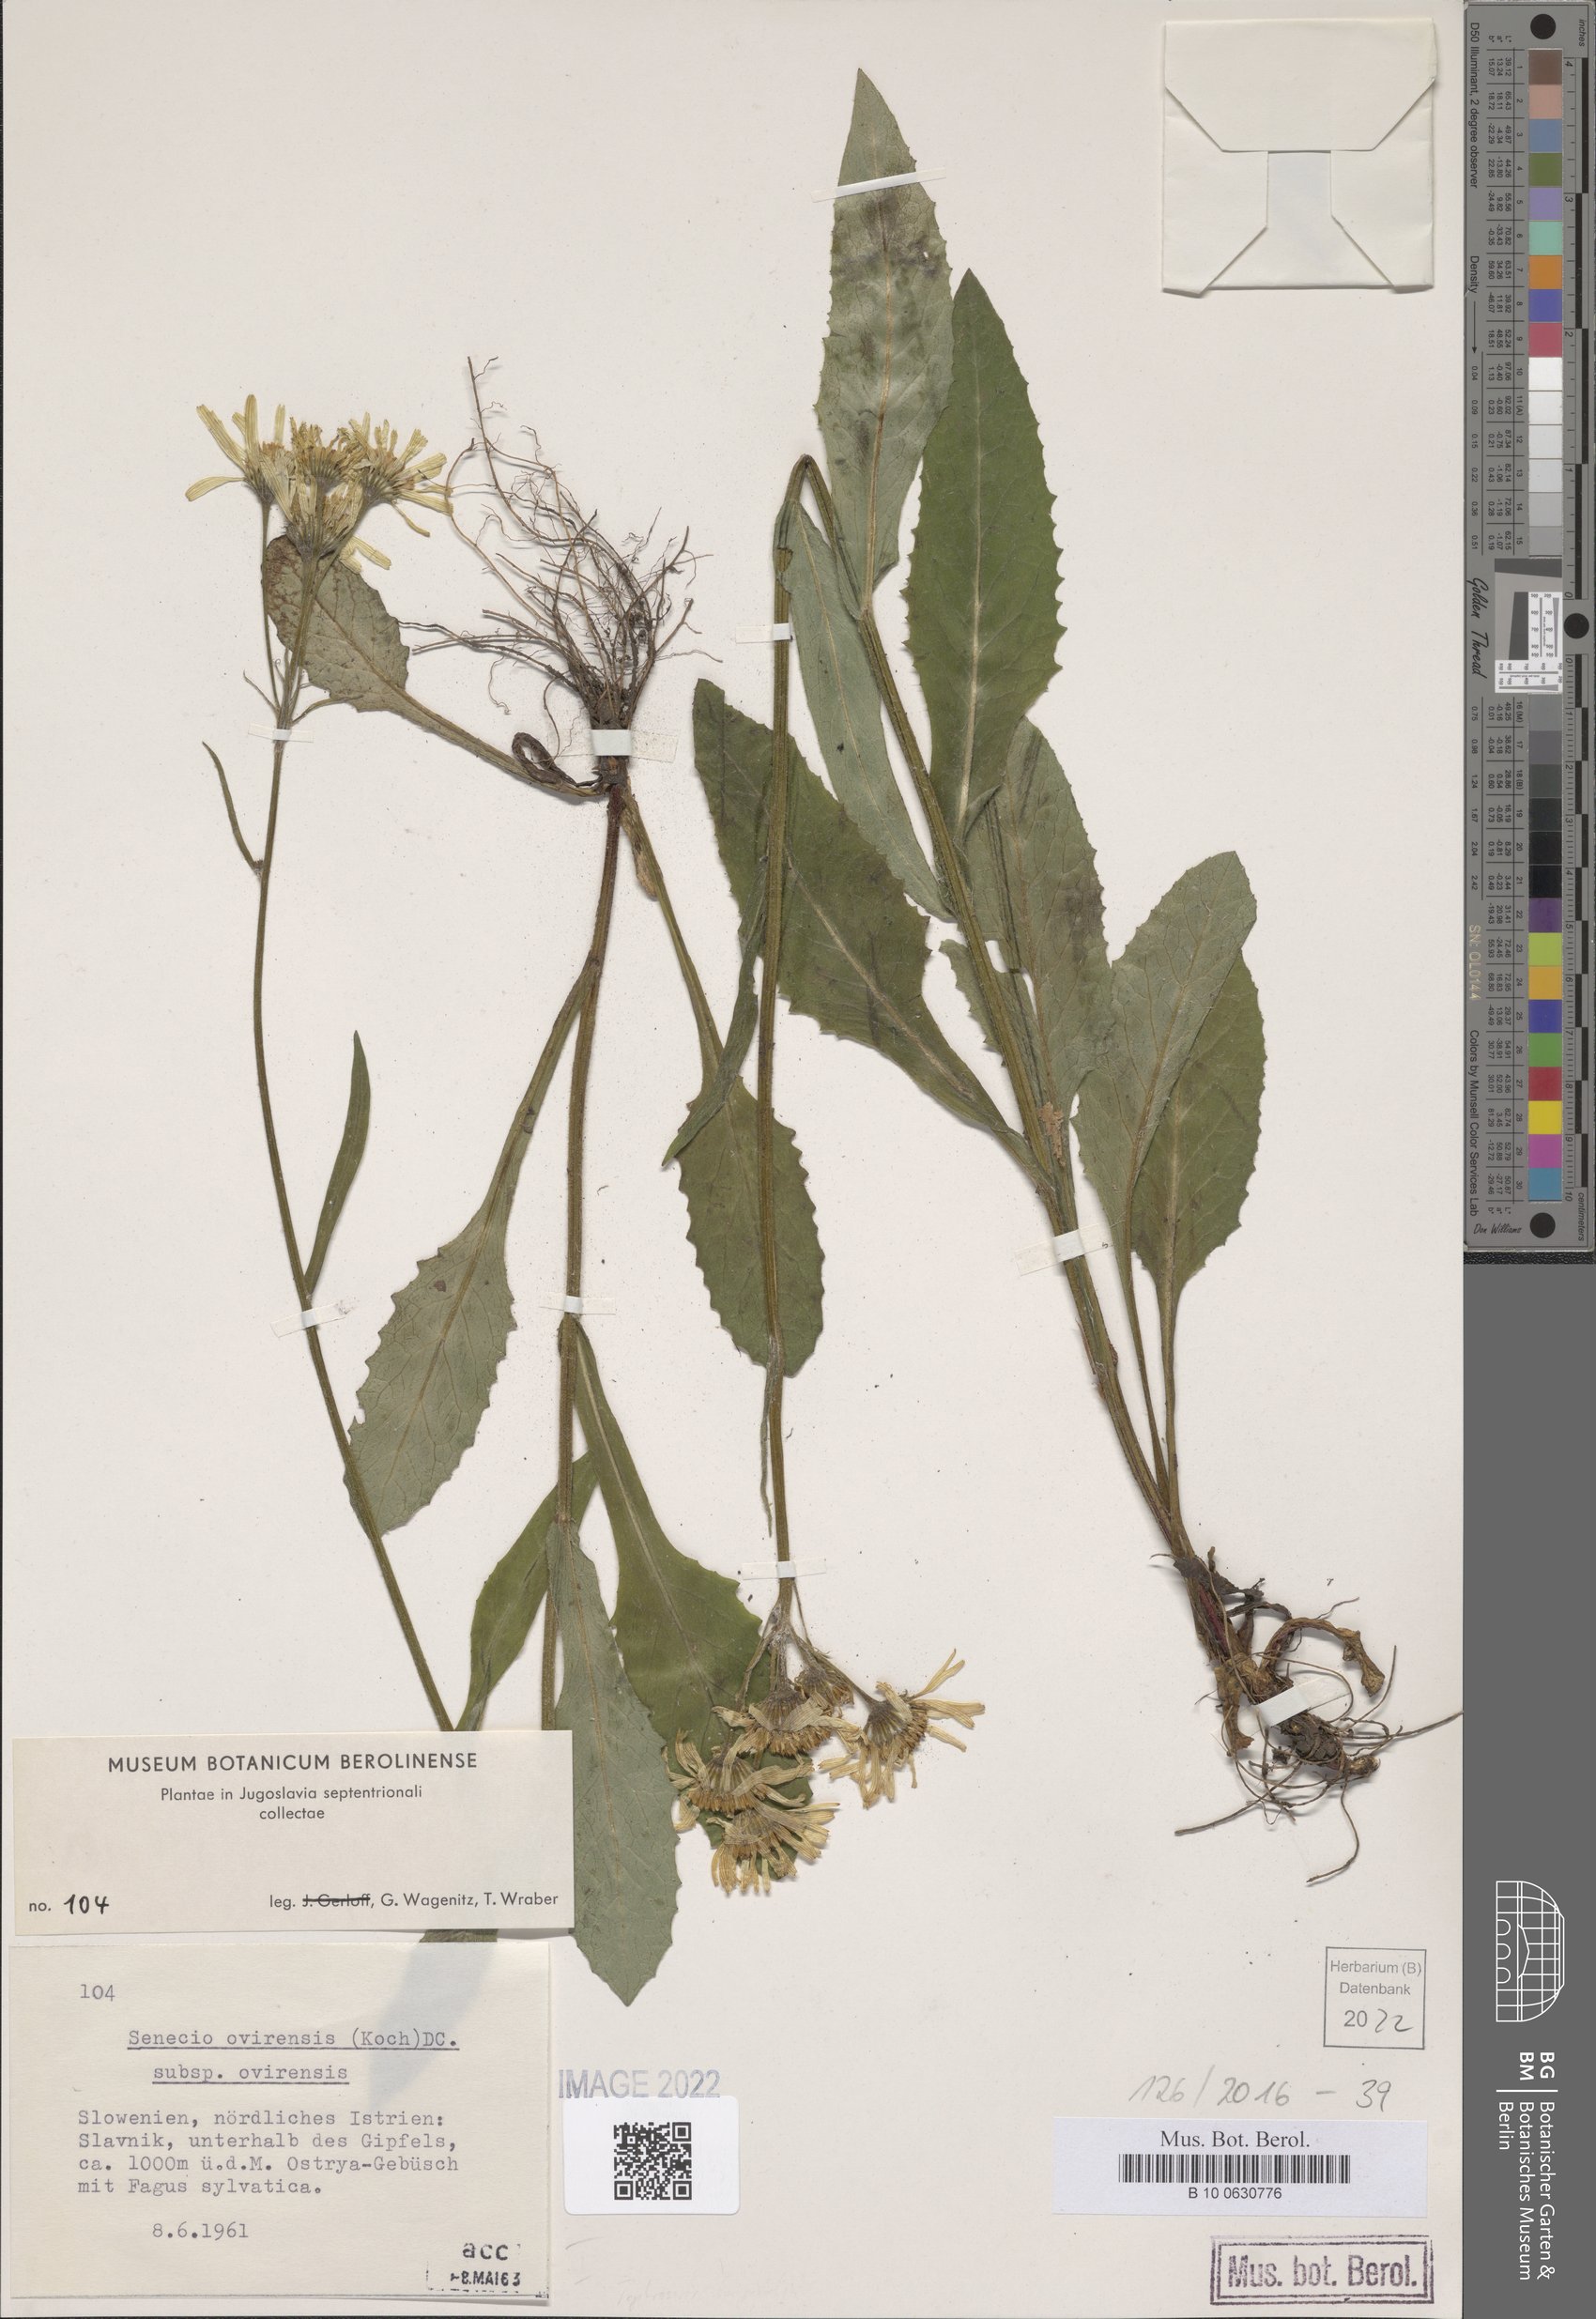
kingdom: Plantae
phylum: Tracheophyta
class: Magnoliopsida
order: Asterales
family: Asteraceae
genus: Tephroseris
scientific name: Tephroseris longifolia
